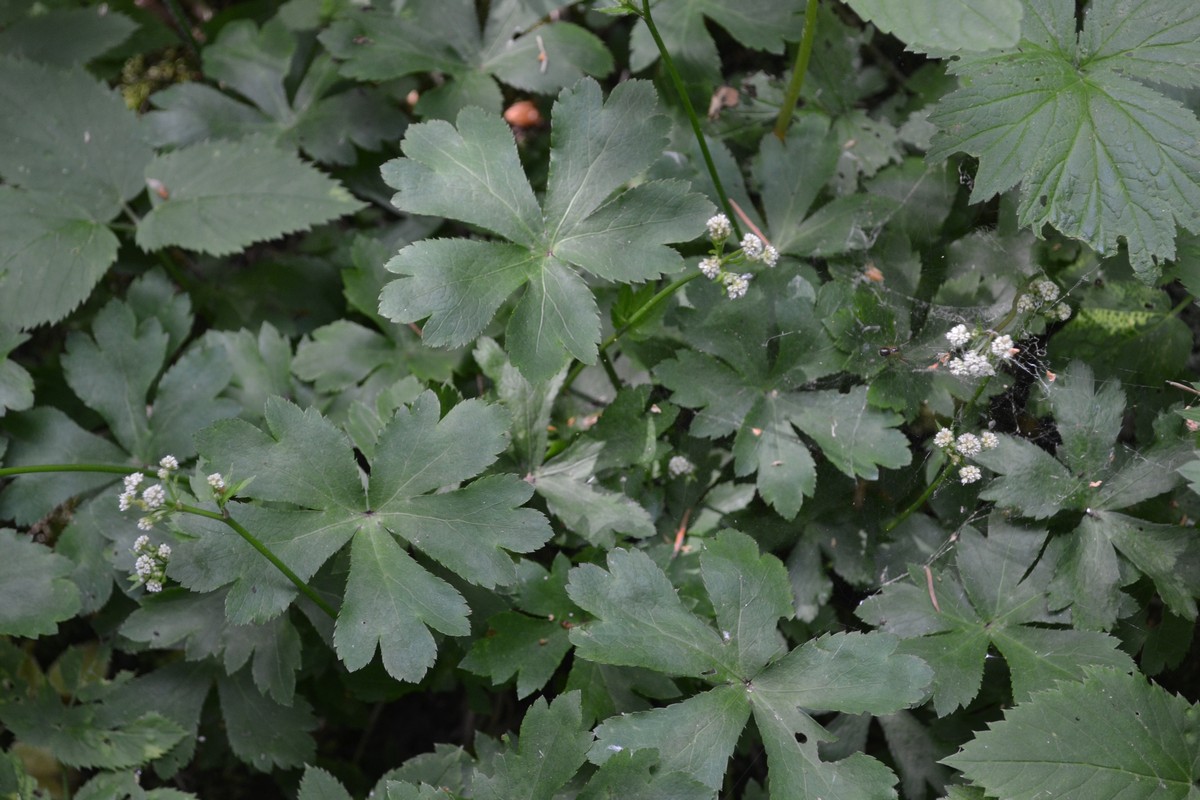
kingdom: Plantae
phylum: Tracheophyta
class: Magnoliopsida
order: Apiales
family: Apiaceae
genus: Sanicula
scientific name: Sanicula europaea
